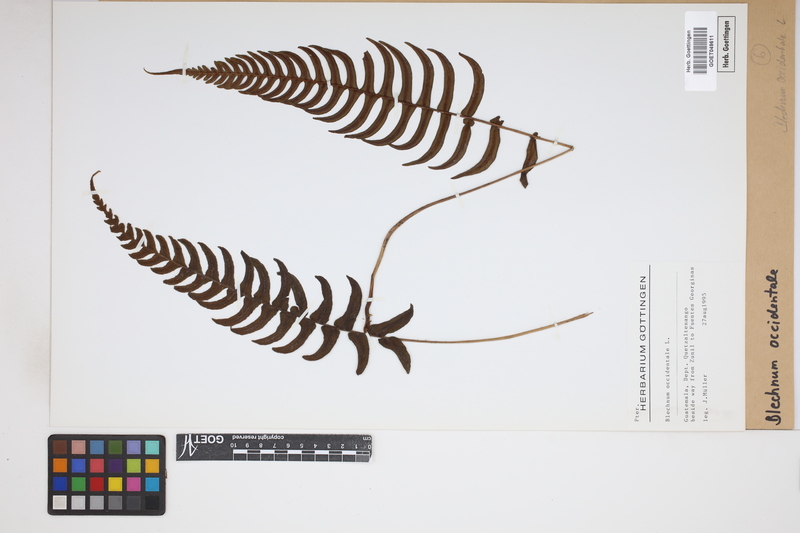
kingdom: Plantae
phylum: Tracheophyta
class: Polypodiopsida
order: Polypodiales
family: Blechnaceae
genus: Blechnum
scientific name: Blechnum occidentale
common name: Hammock fern
